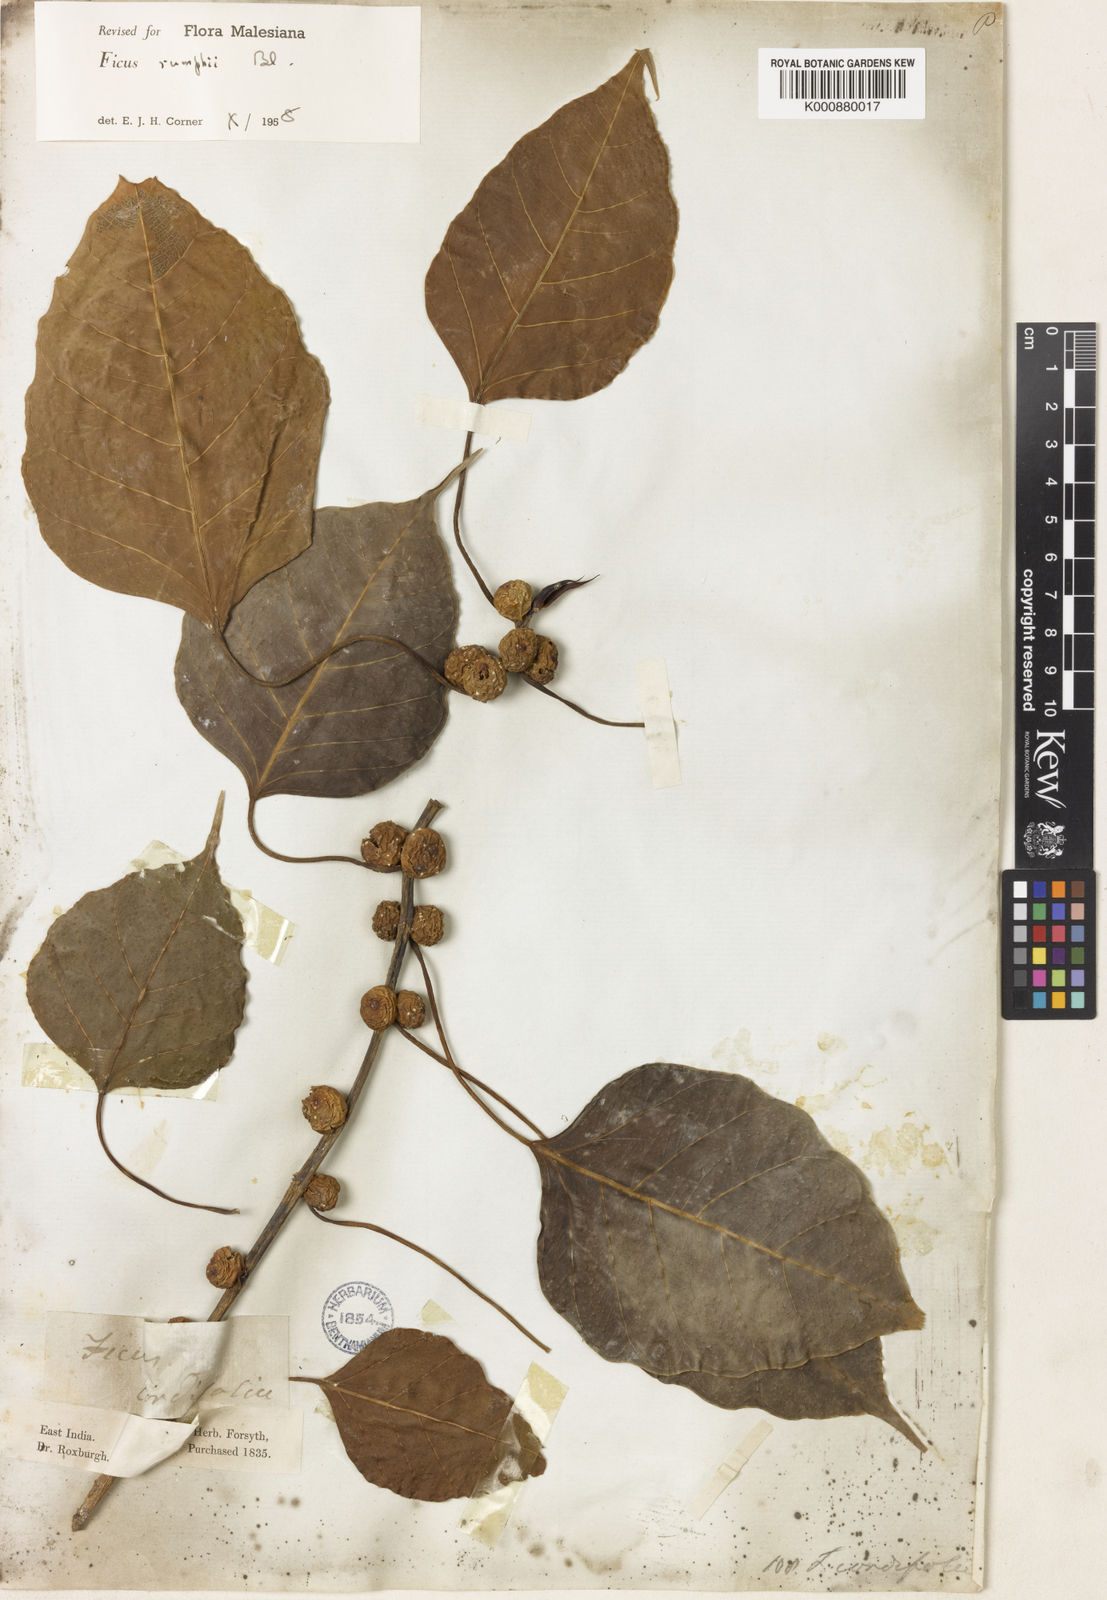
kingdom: Plantae
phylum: Tracheophyta
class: Magnoliopsida
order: Rosales
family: Moraceae
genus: Ficus
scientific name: Ficus rumphii
